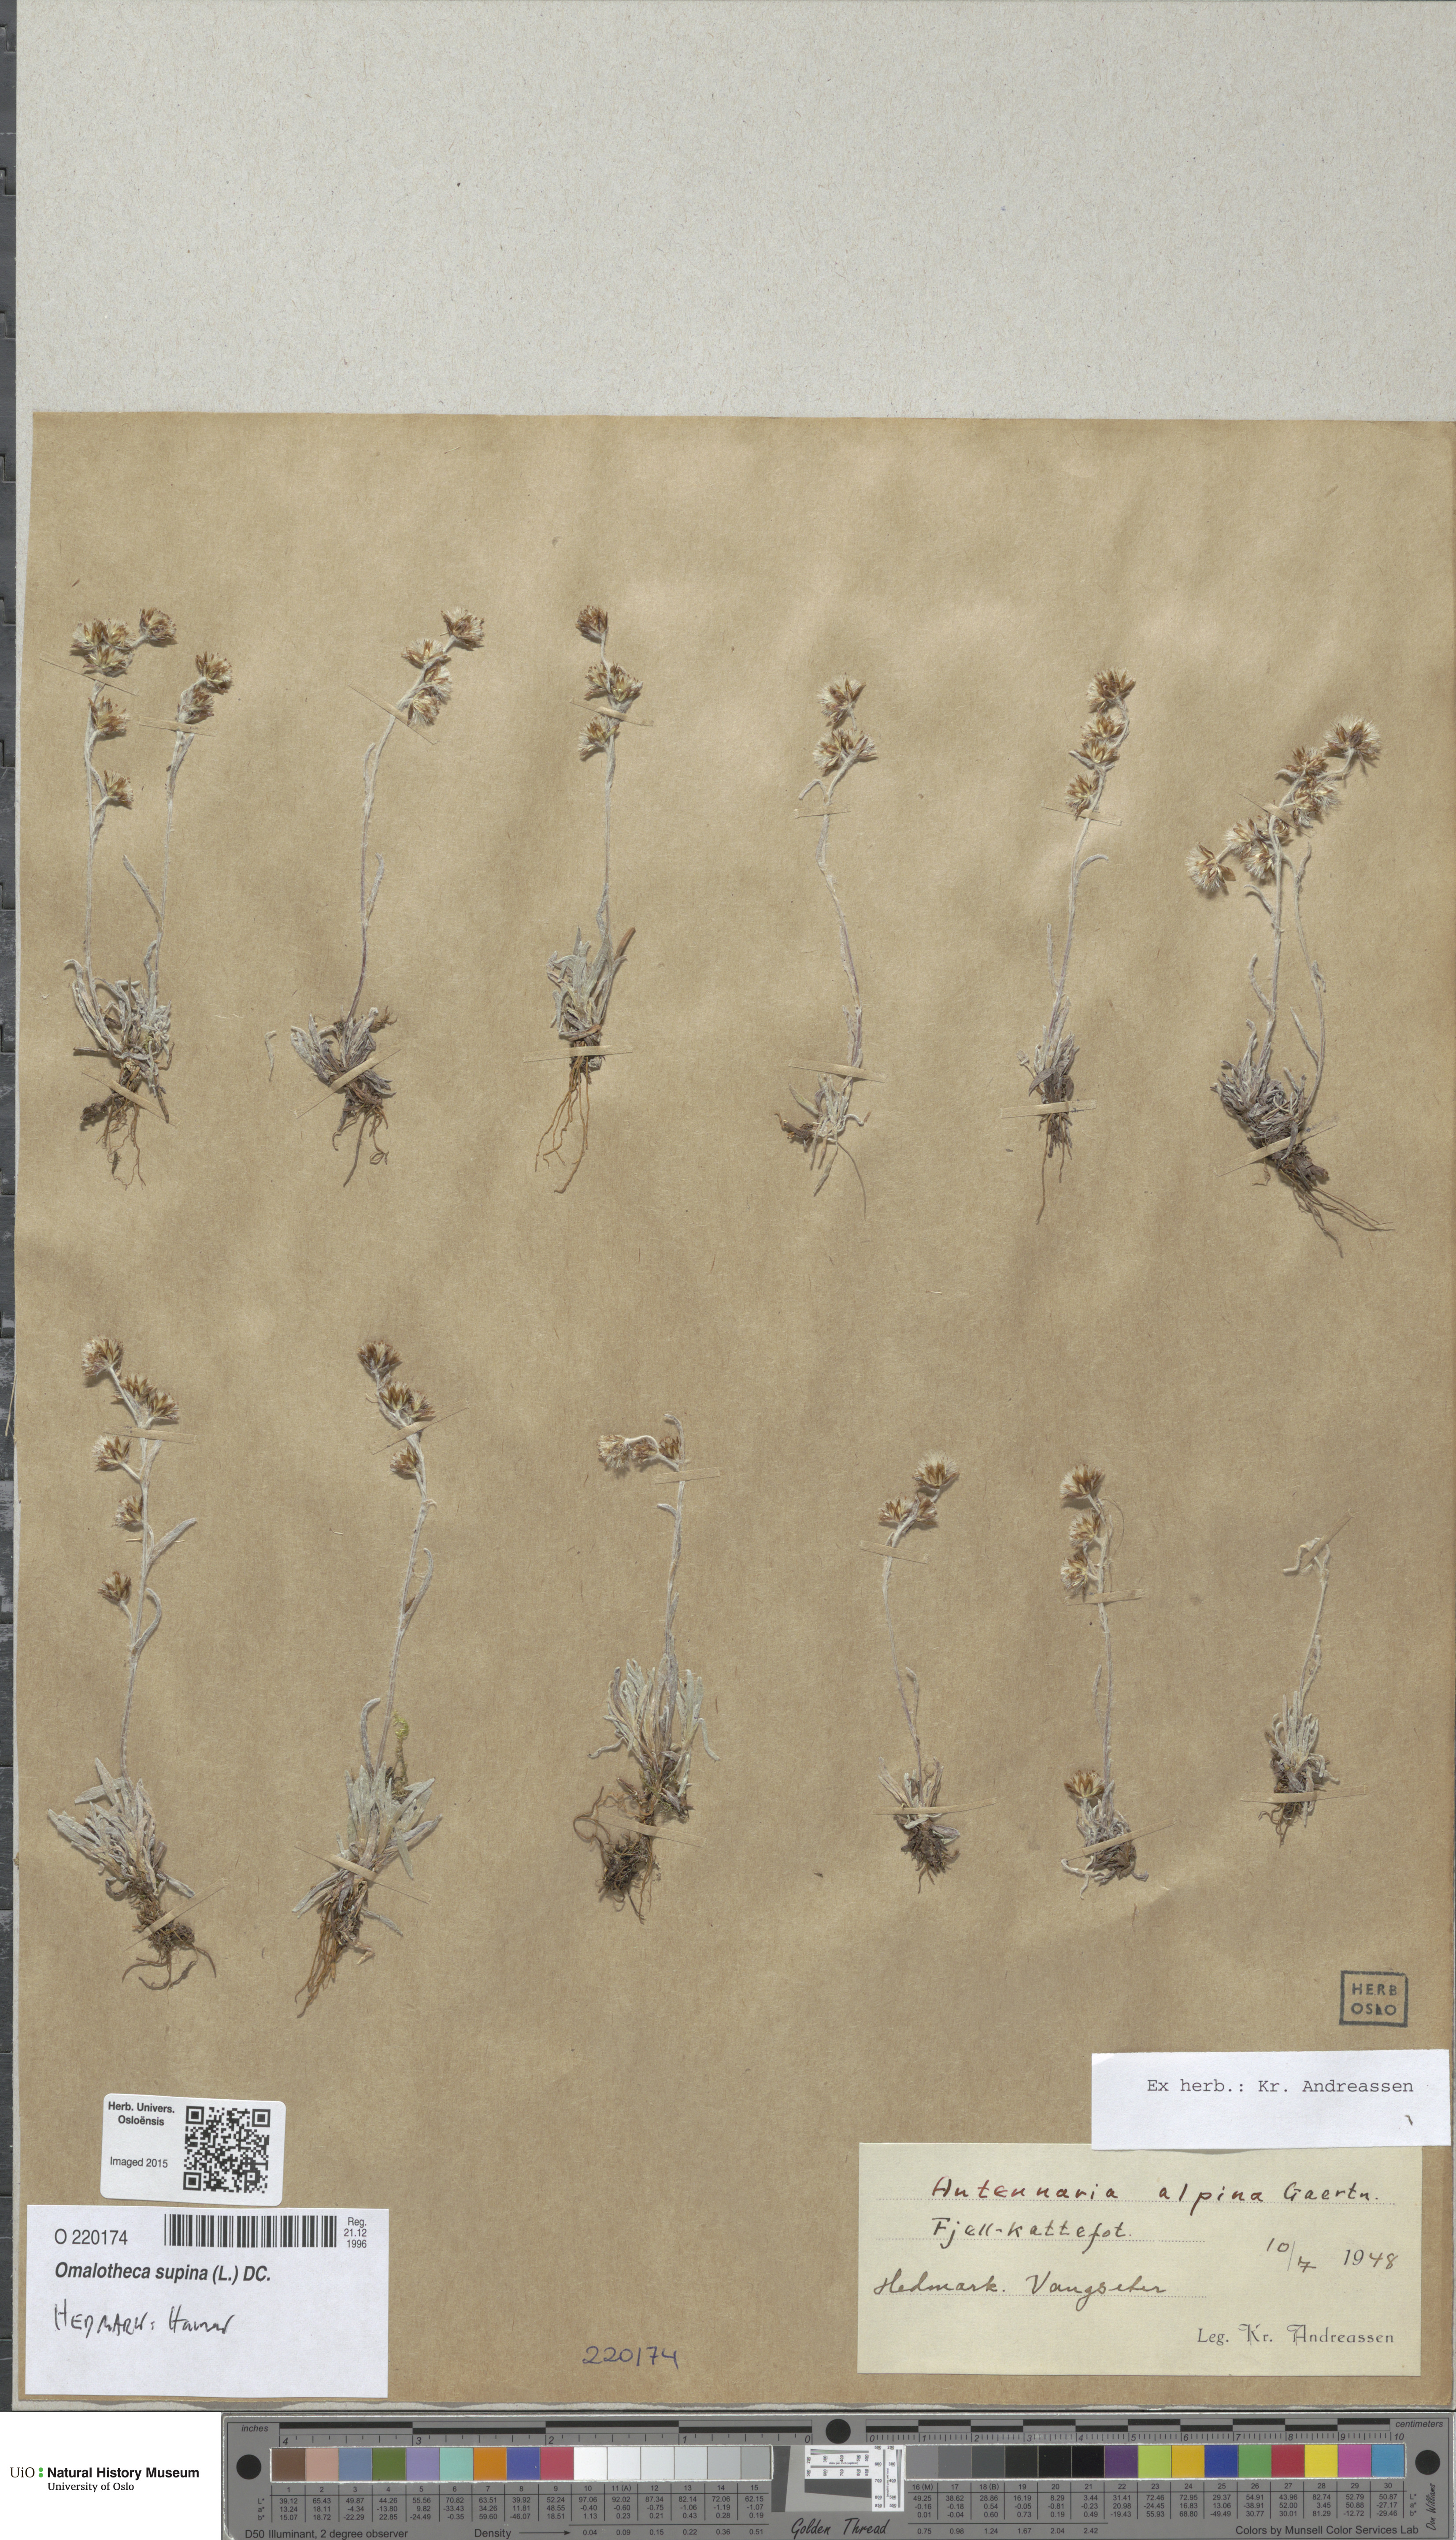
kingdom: Plantae
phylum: Tracheophyta
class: Magnoliopsida
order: Asterales
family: Asteraceae
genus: Omalotheca
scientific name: Omalotheca supina
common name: Alpine arctic-cudweed
